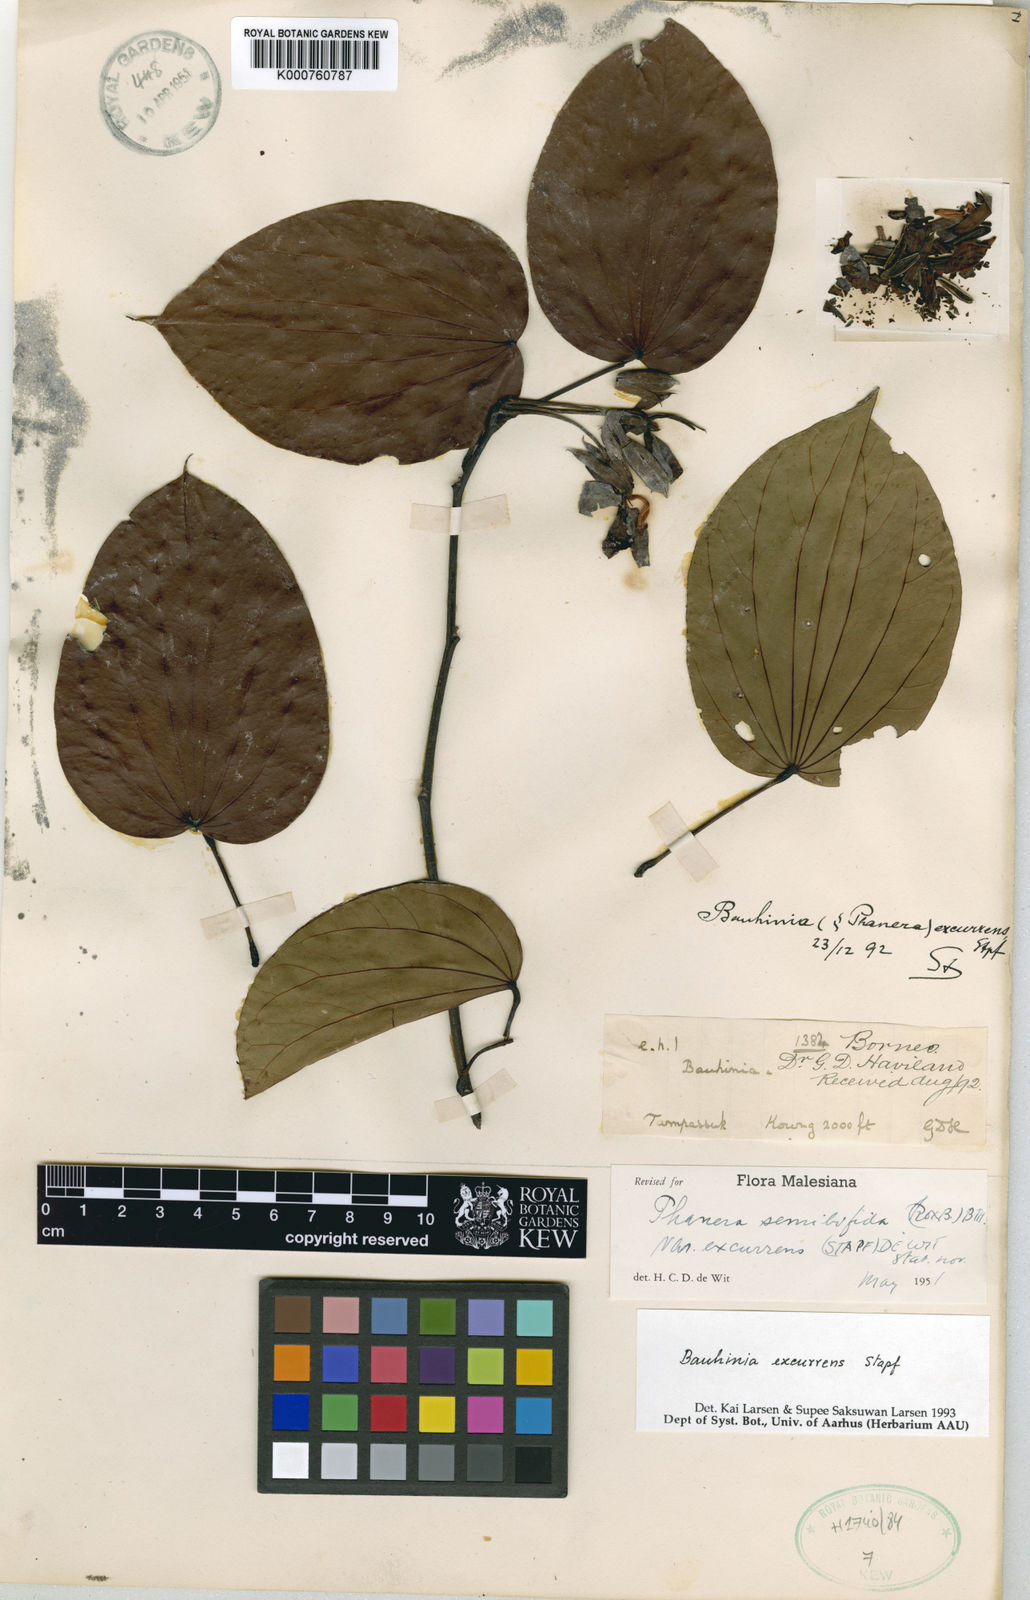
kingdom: Plantae
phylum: Tracheophyta
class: Magnoliopsida
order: Fabales
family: Fabaceae
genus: Phanera
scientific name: Phanera excurrens
